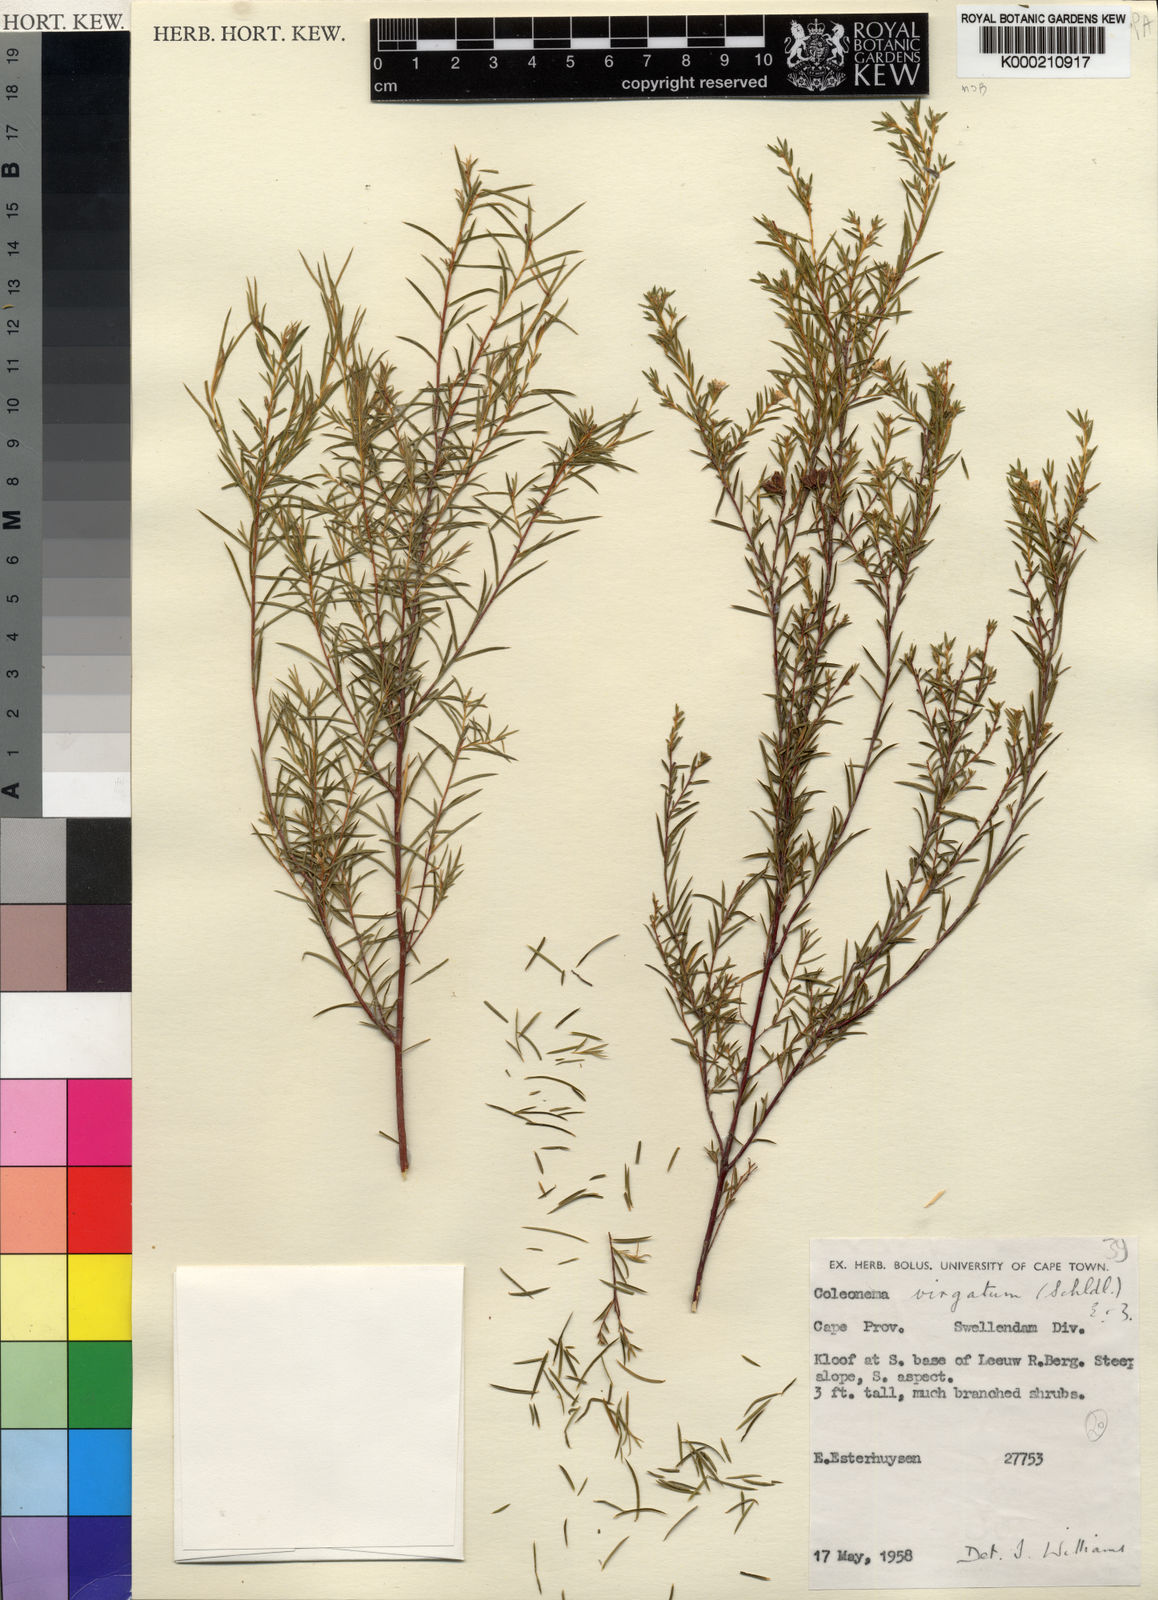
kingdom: Plantae
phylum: Tracheophyta
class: Magnoliopsida
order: Sapindales
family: Rutaceae
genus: Coleonema
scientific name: Coleonema virgatum
